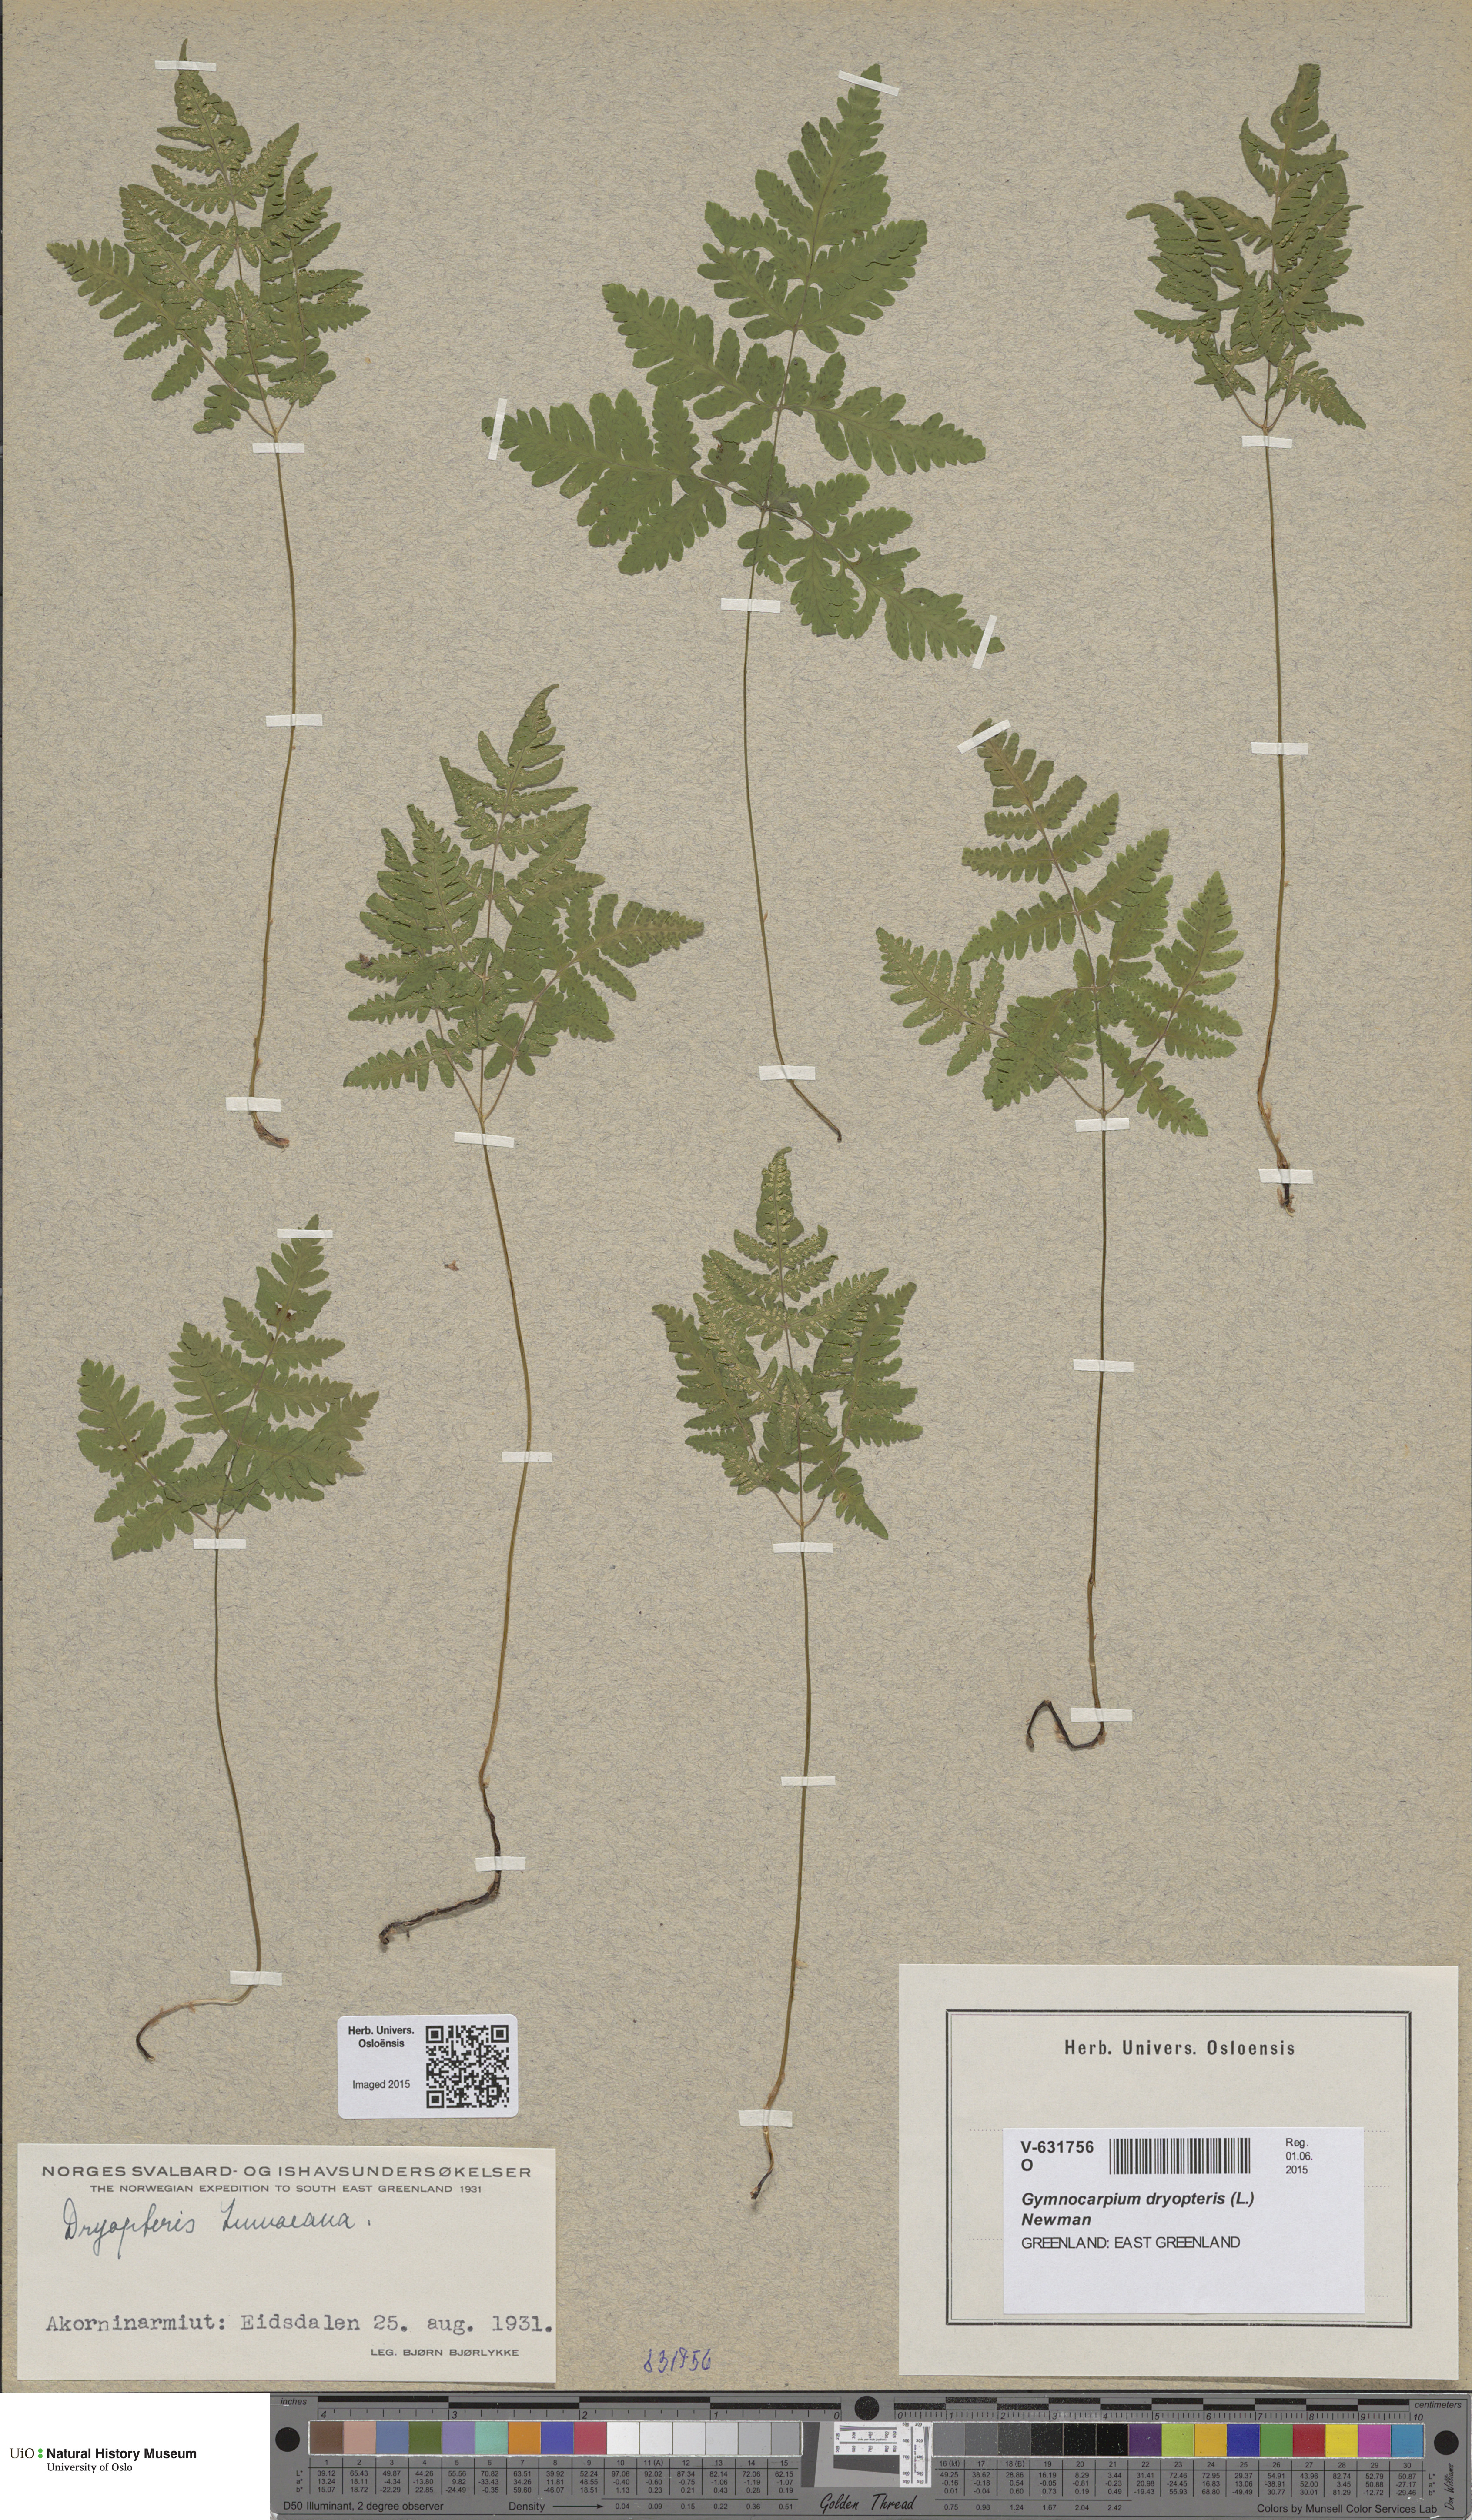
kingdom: Plantae
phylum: Tracheophyta
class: Polypodiopsida
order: Polypodiales
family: Cystopteridaceae
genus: Gymnocarpium
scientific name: Gymnocarpium dryopteris
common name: Oak fern
